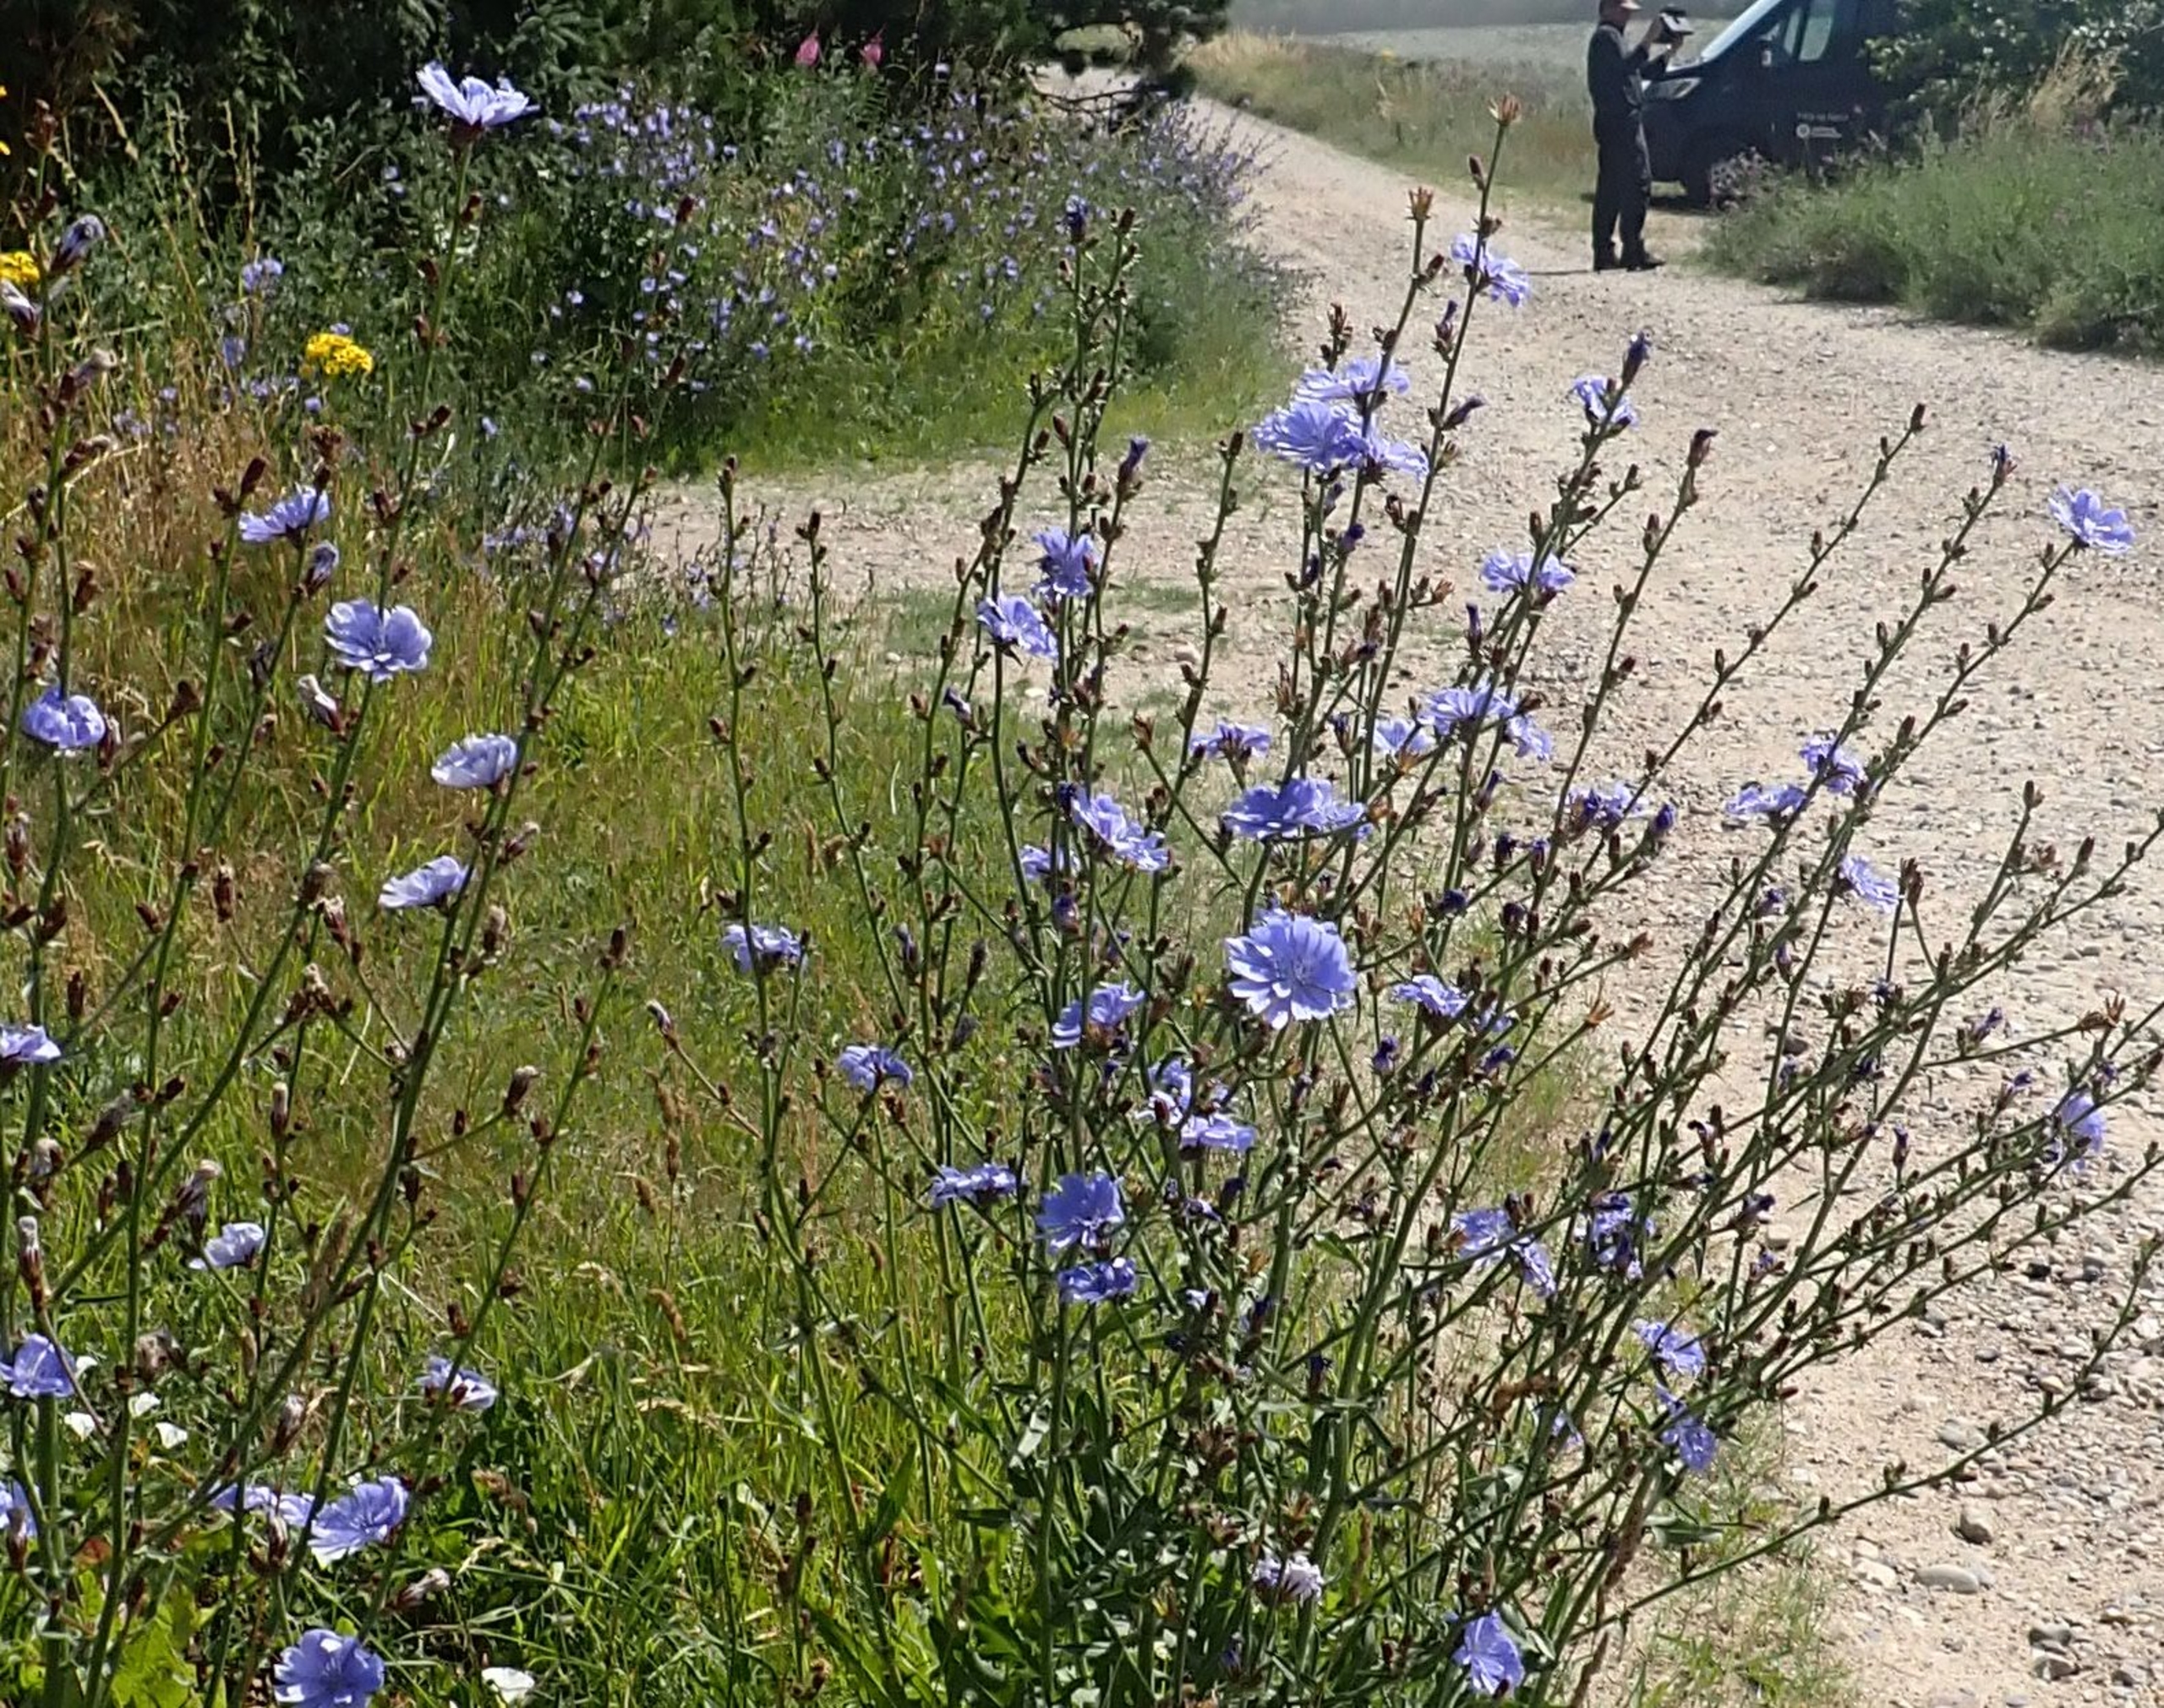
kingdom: Plantae
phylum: Tracheophyta
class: Magnoliopsida
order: Asterales
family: Asteraceae
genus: Cichorium
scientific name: Cichorium intybus
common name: Cikorie
